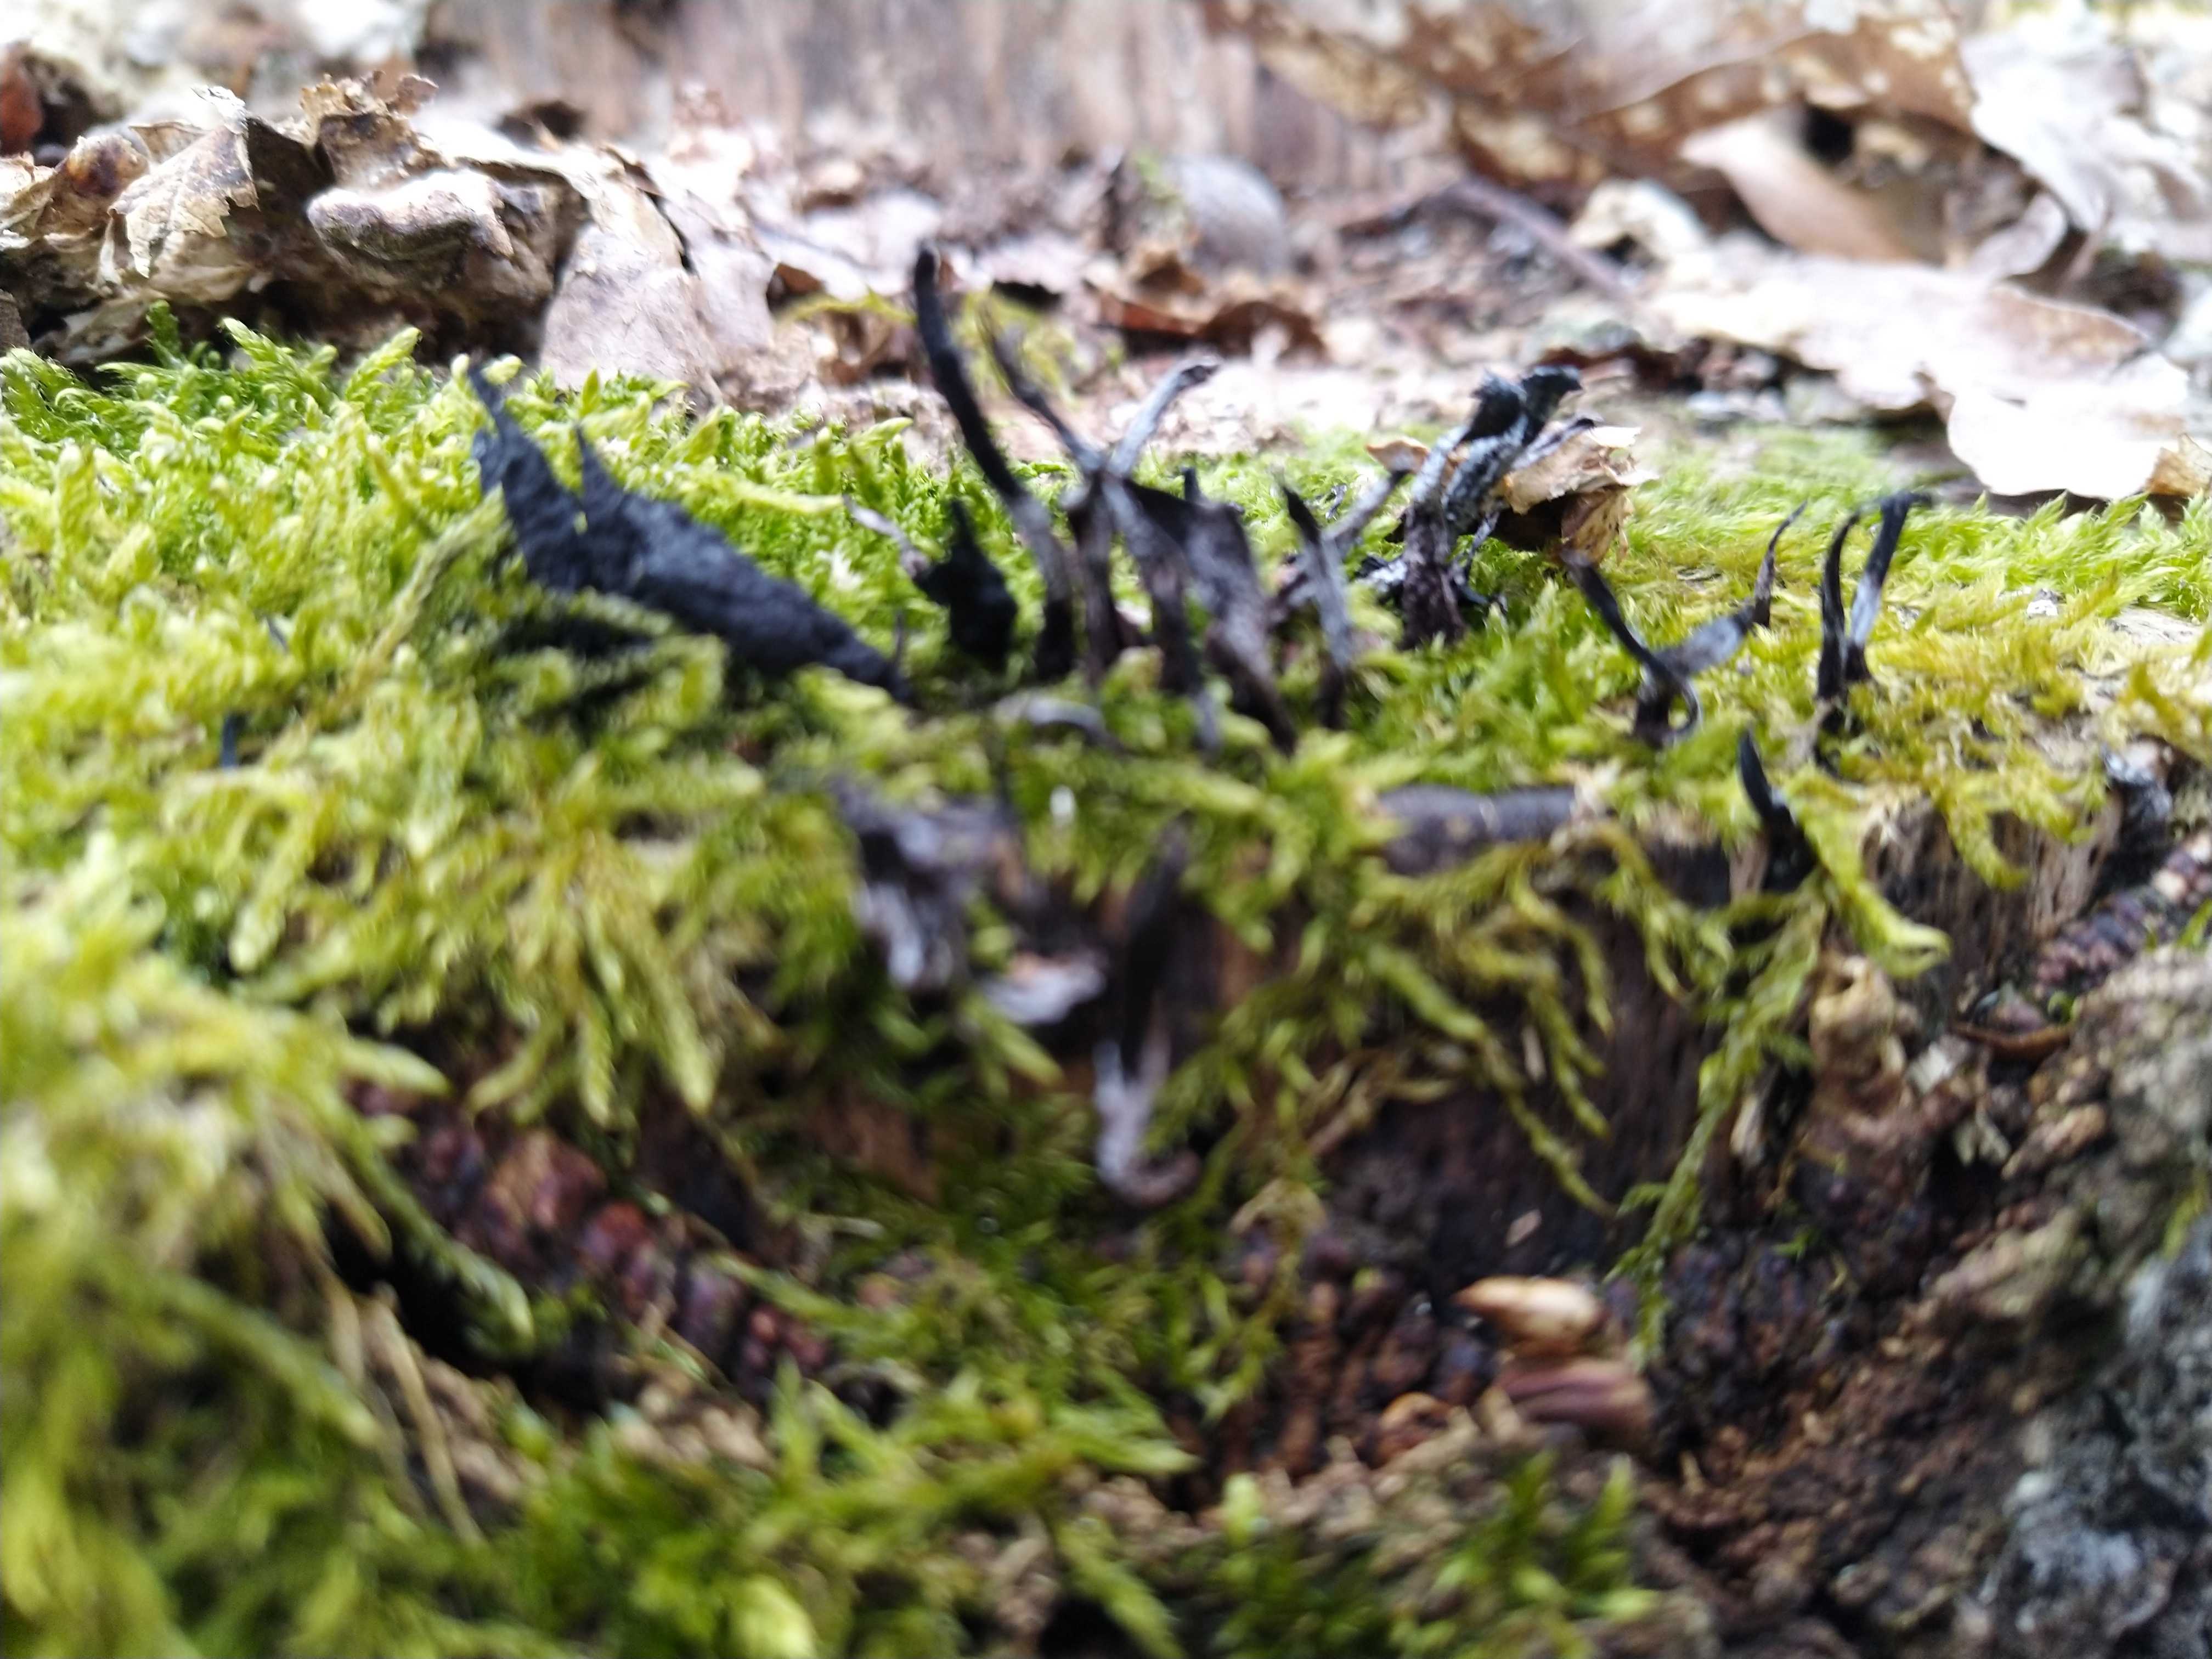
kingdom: Fungi
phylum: Ascomycota
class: Sordariomycetes
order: Xylariales
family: Xylariaceae
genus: Xylaria
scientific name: Xylaria hypoxylon
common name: grenet stødsvamp
